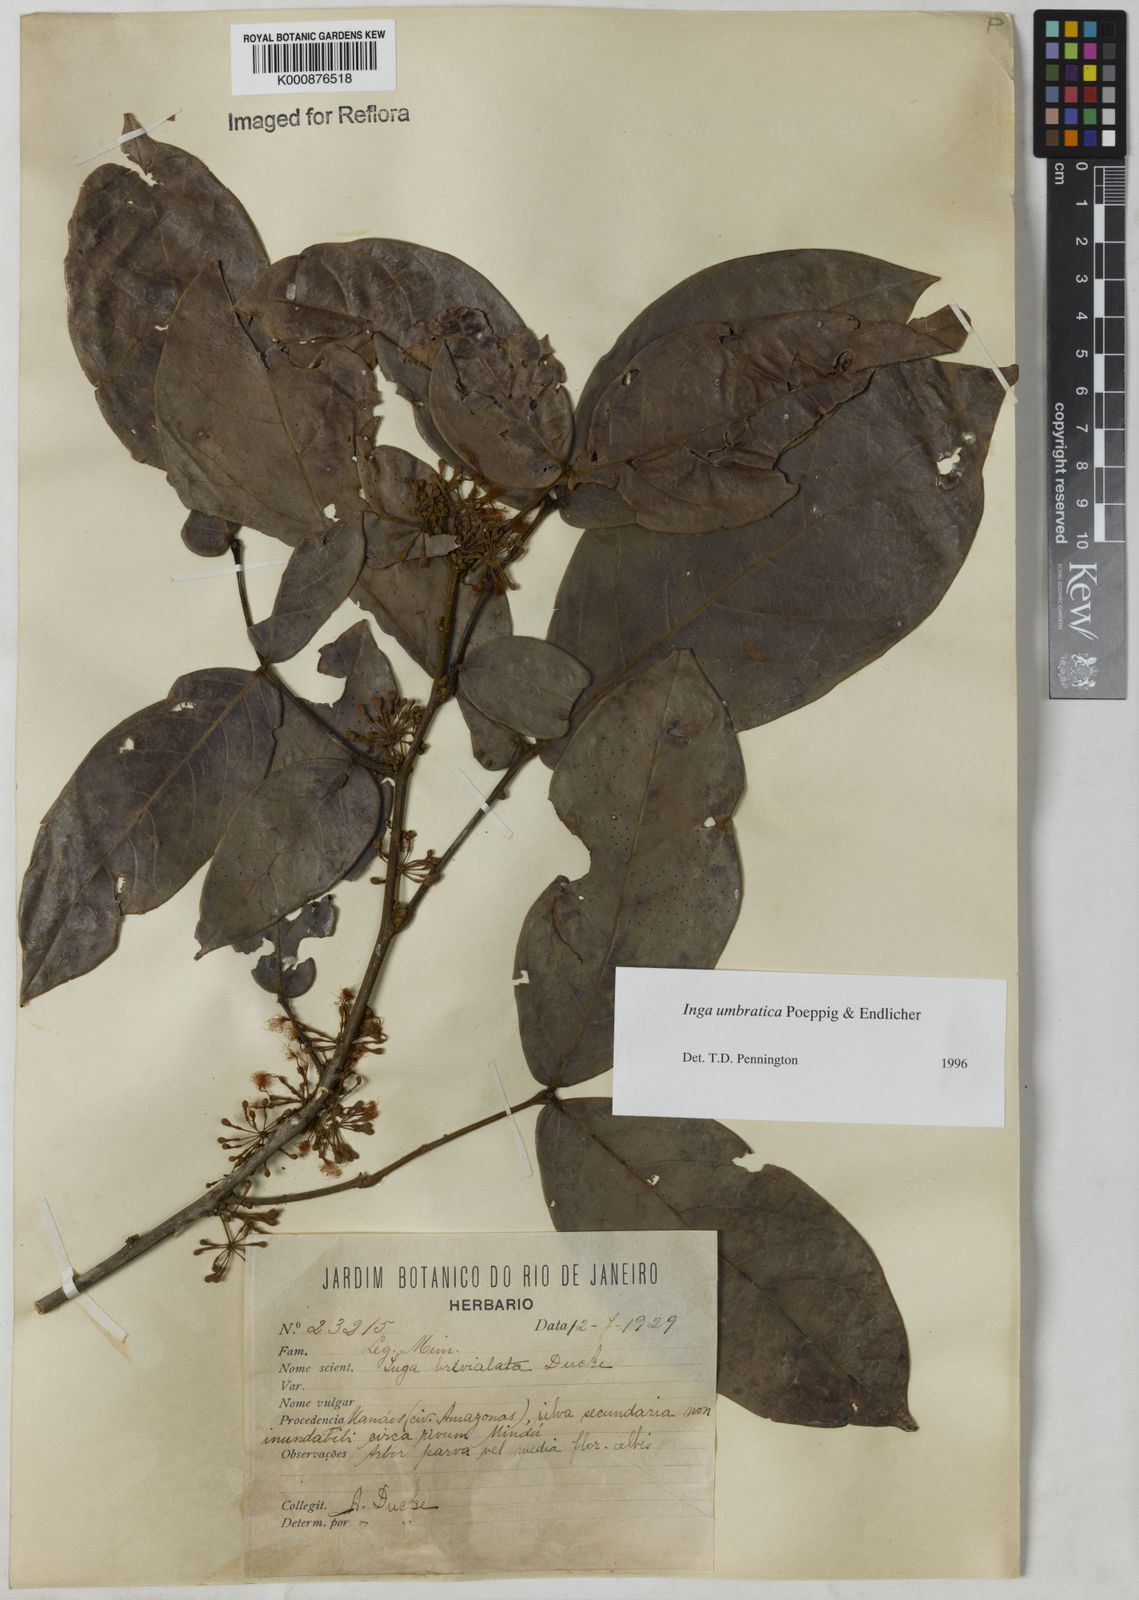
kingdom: Plantae
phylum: Tracheophyta
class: Magnoliopsida
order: Fabales
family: Fabaceae
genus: Inga
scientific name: Inga umbratica
